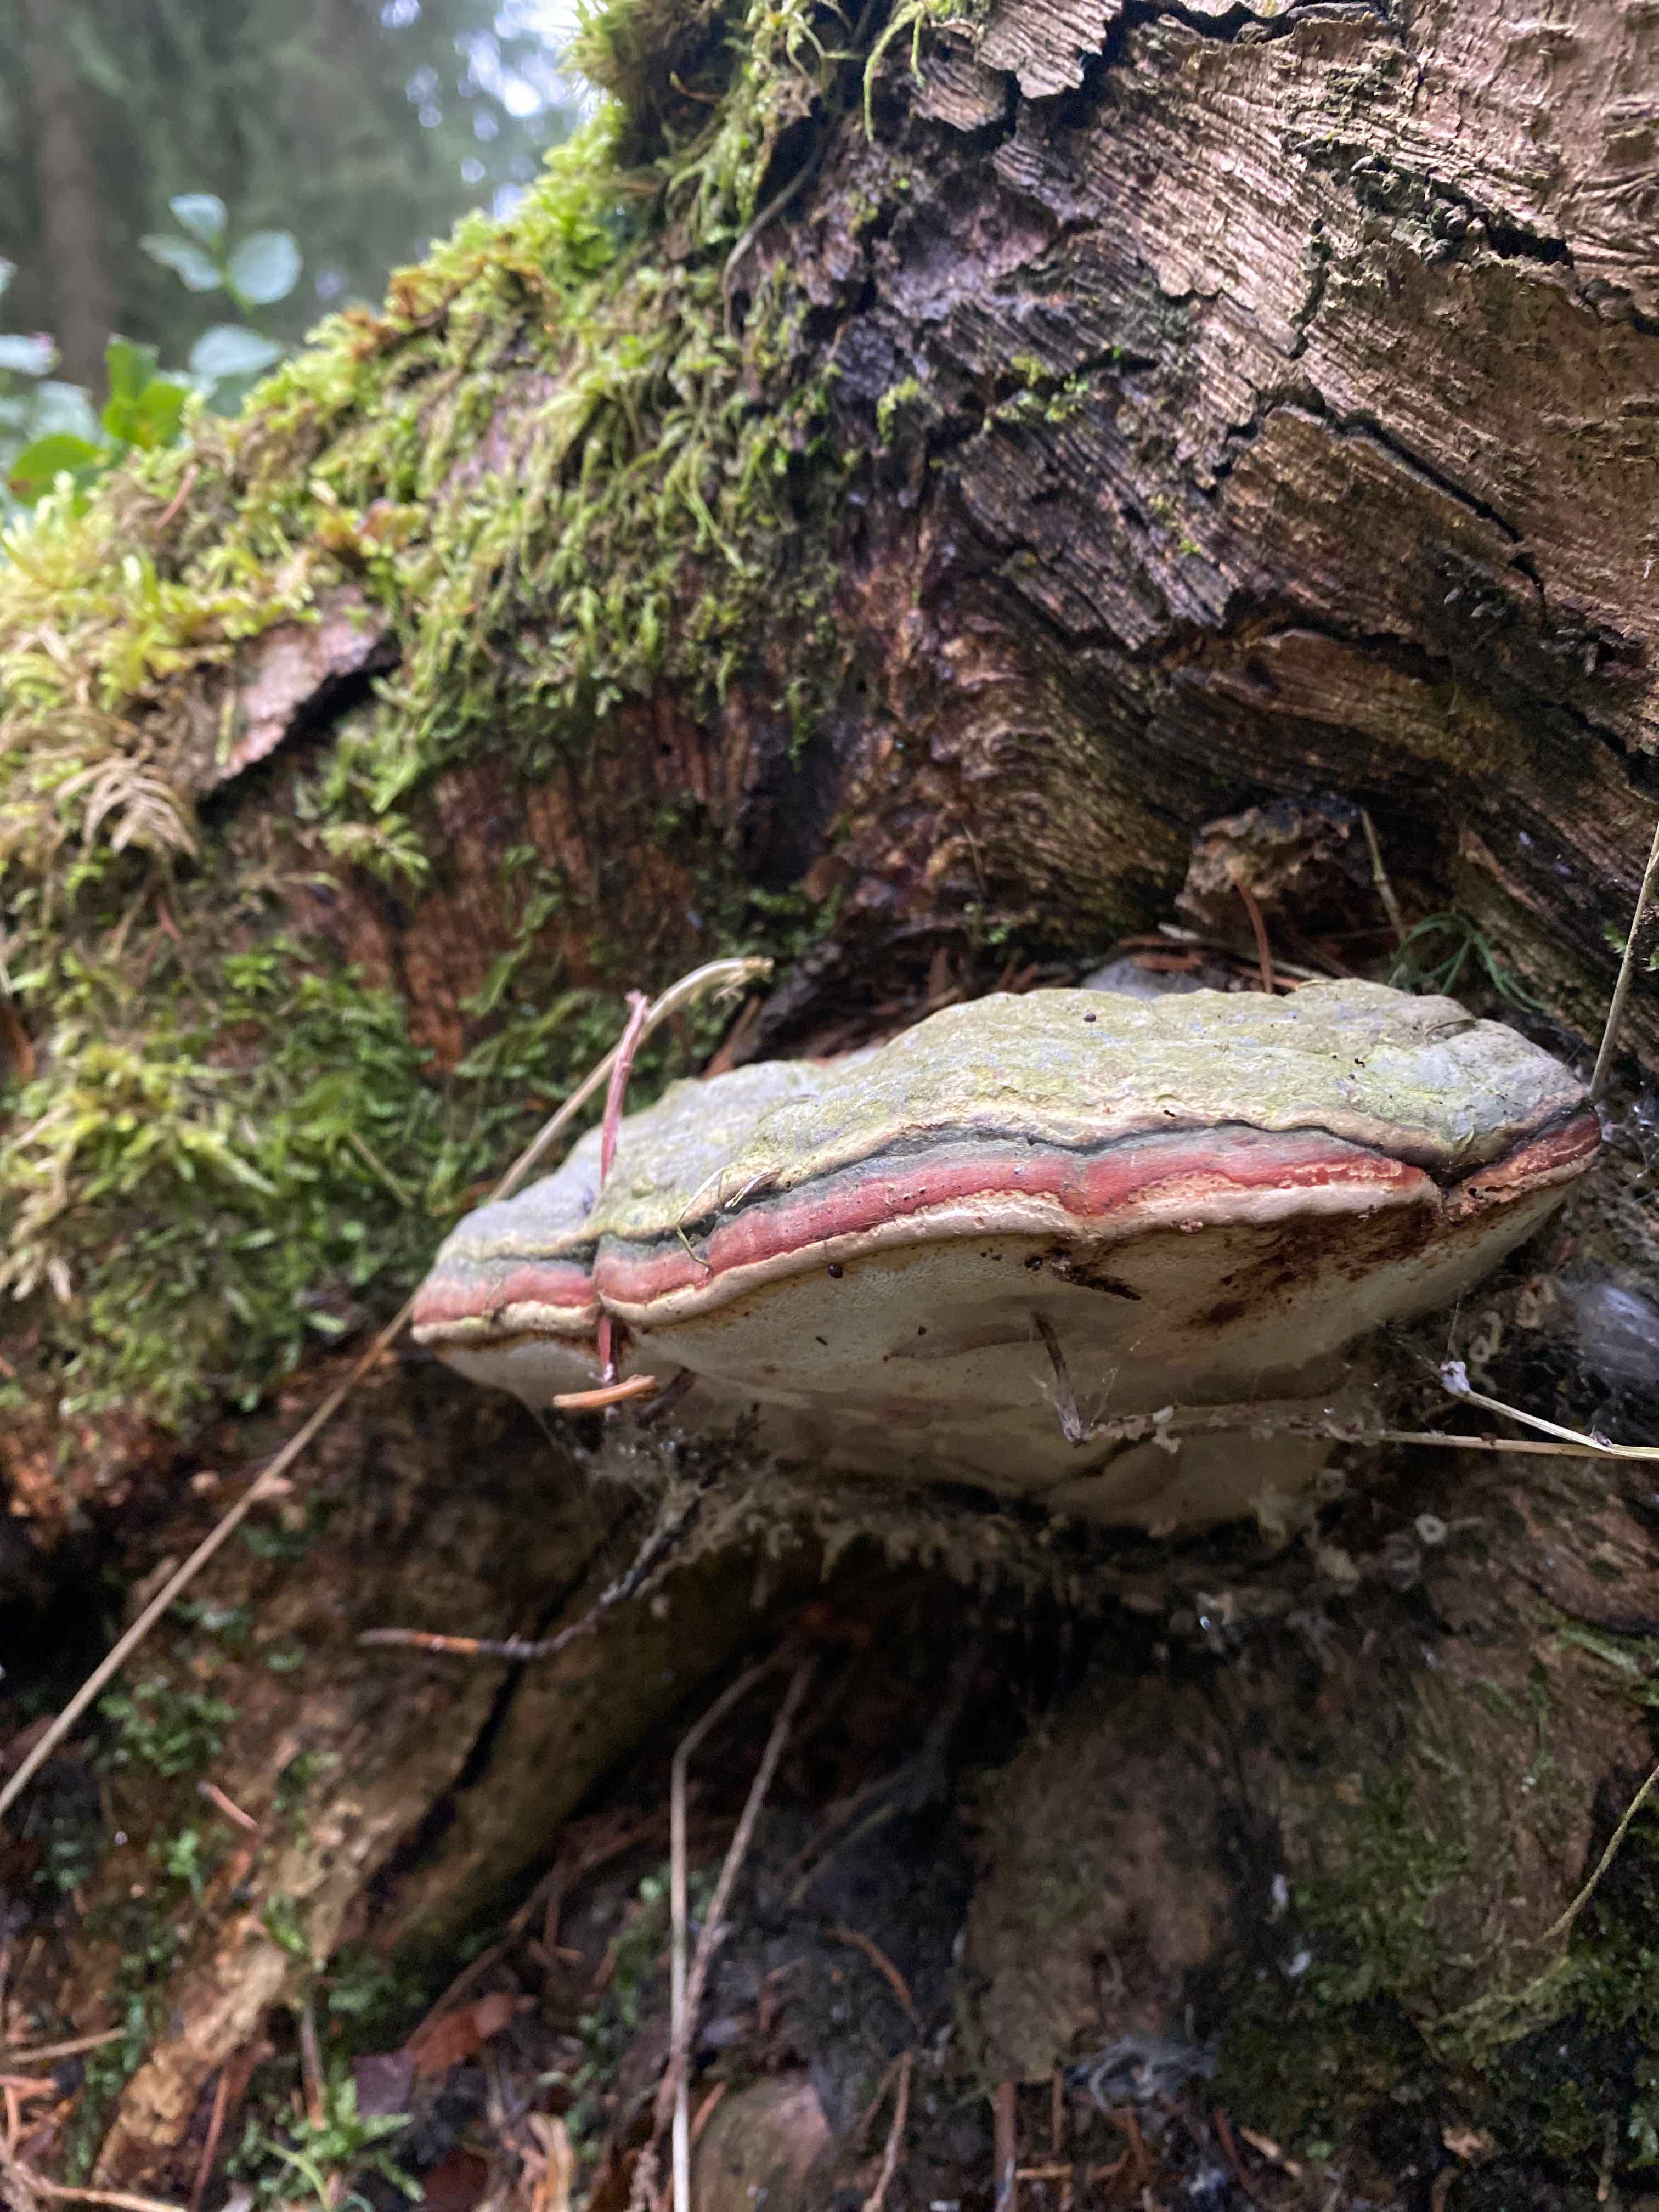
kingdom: Fungi
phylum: Basidiomycota
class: Agaricomycetes
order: Polyporales
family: Fomitopsidaceae
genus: Fomitopsis
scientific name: Fomitopsis pinicola
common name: randbæltet hovporesvamp
